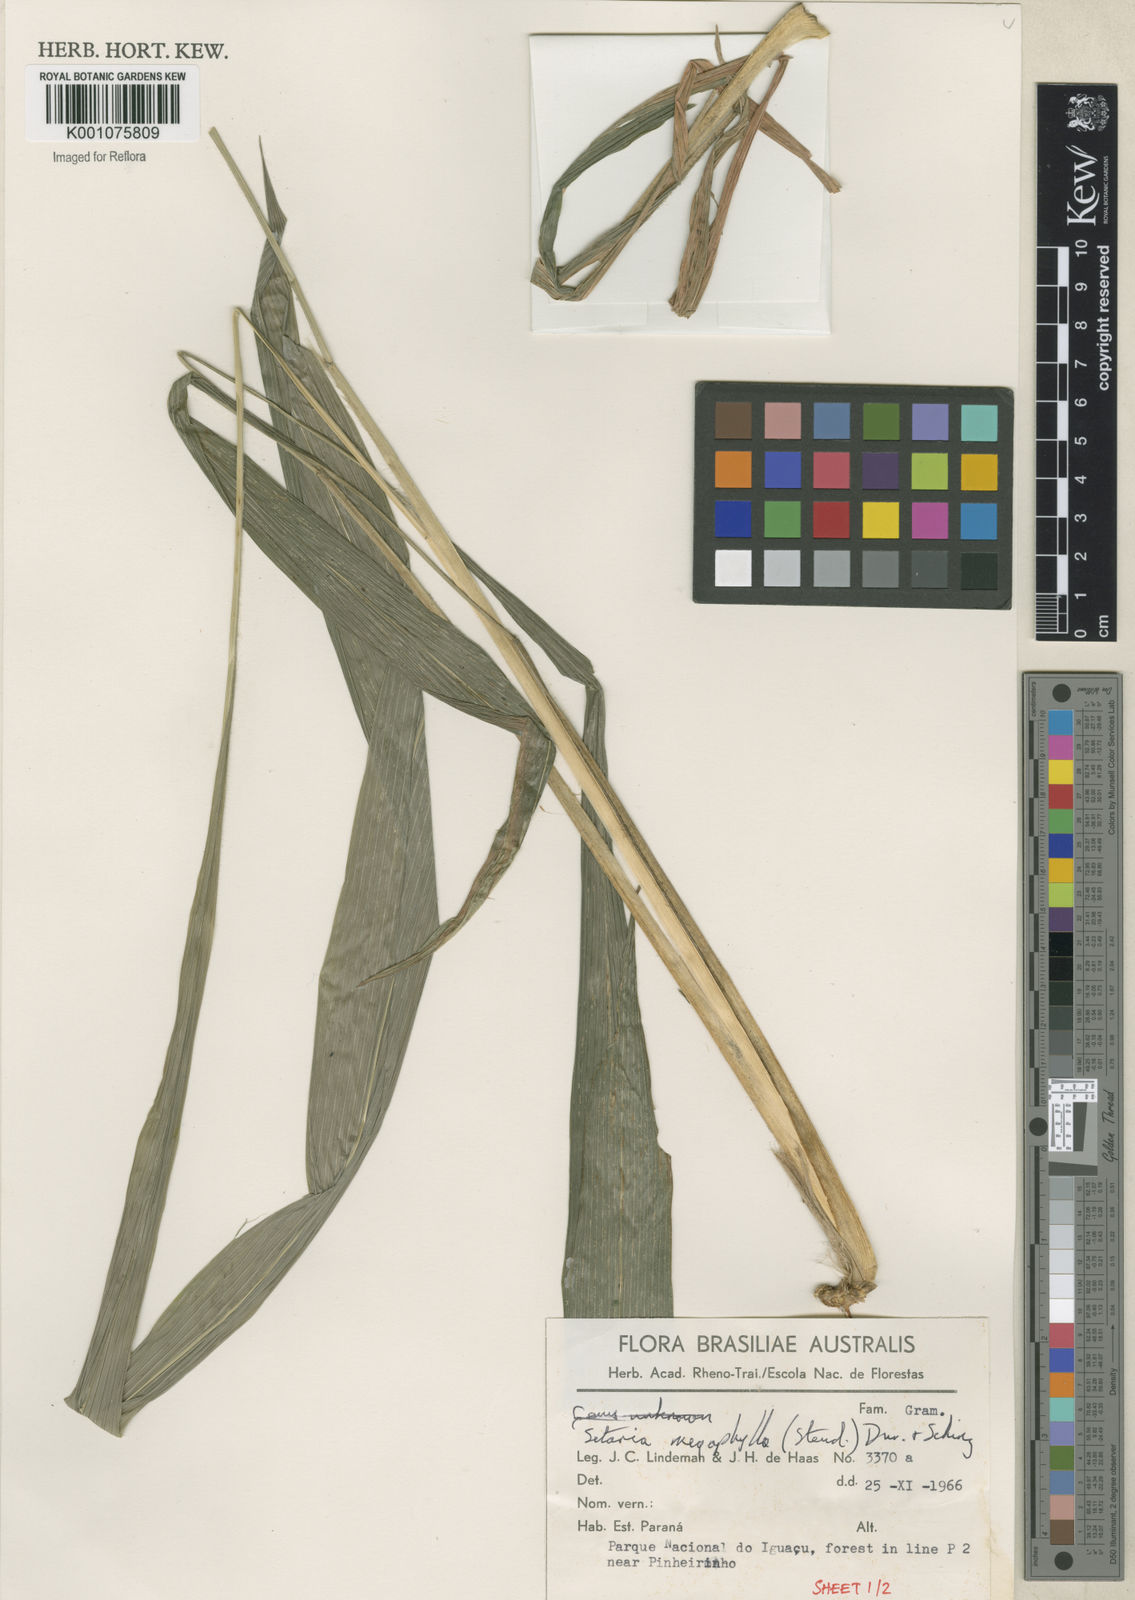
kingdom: Plantae
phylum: Tracheophyta
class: Liliopsida
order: Poales
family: Poaceae
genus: Setaria
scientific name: Setaria megaphylla
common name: Bigleaf bristlegrass
